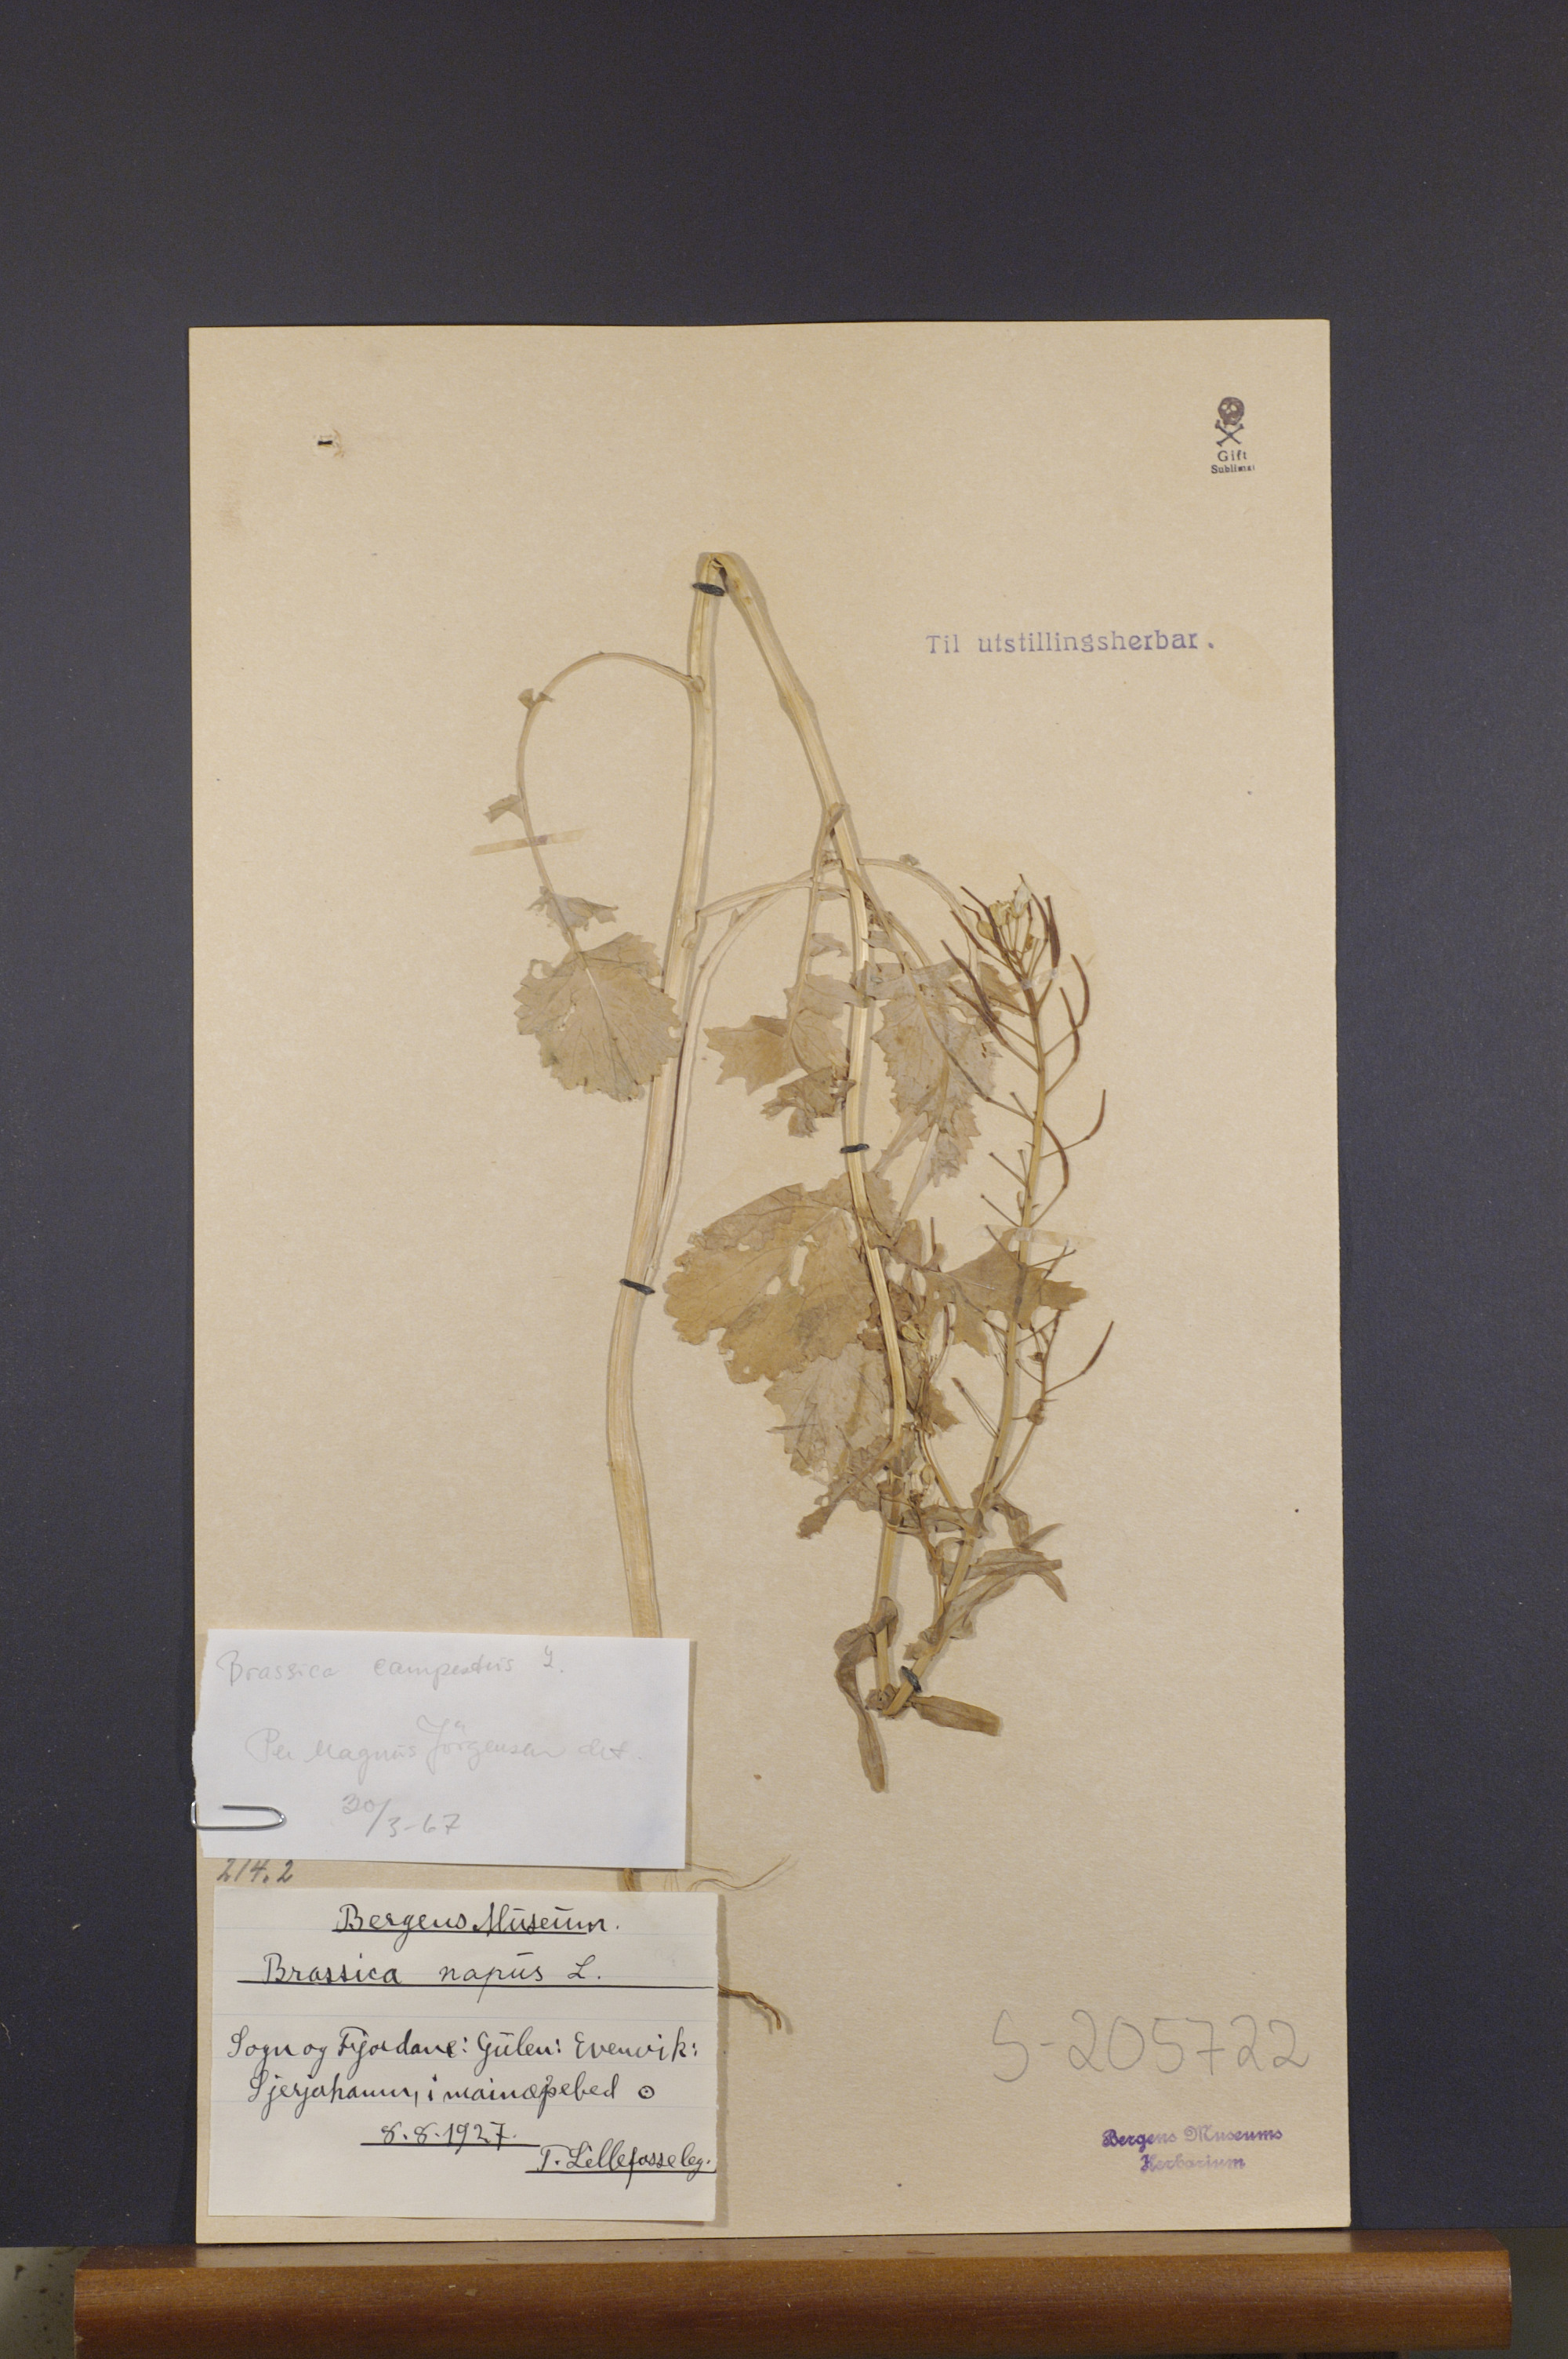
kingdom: Plantae
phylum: Tracheophyta
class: Magnoliopsida
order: Brassicales
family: Brassicaceae
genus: Brassica
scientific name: Brassica rapa
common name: Field mustard
